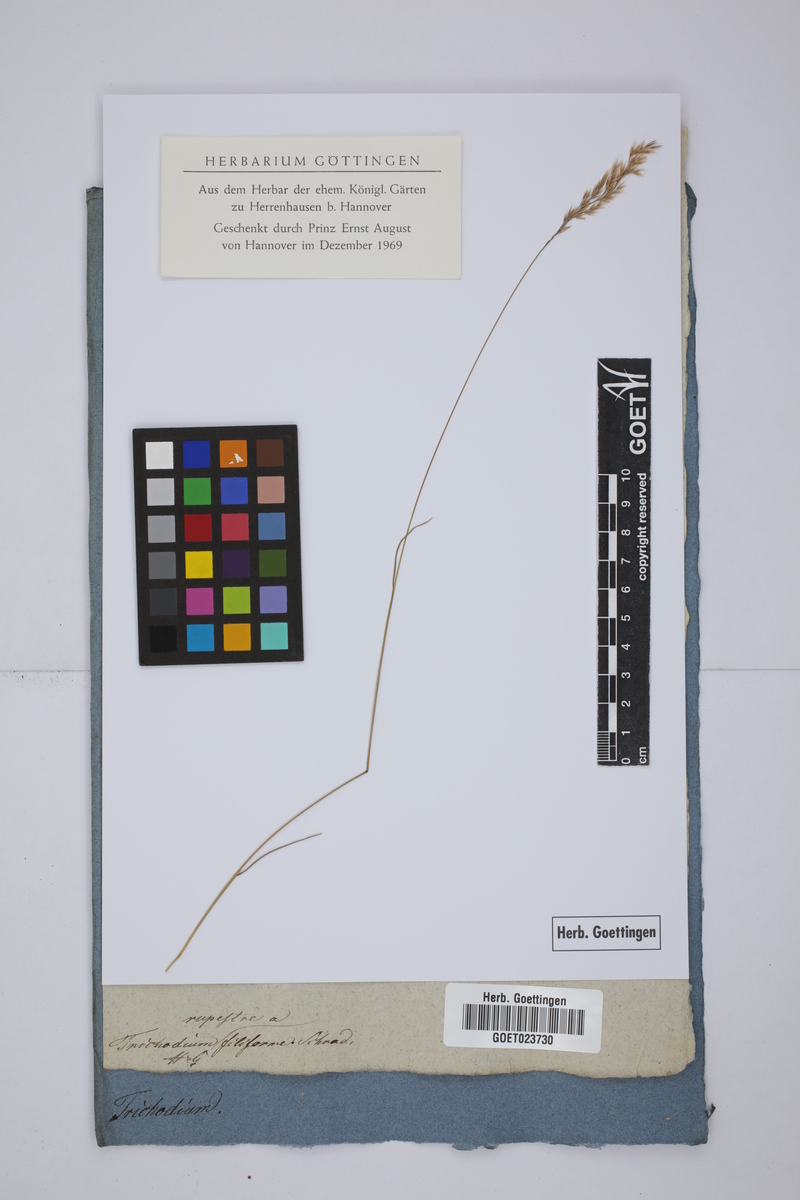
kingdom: Plantae
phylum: Tracheophyta
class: Liliopsida
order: Poales
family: Poaceae
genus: Alpagrostis
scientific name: Alpagrostis alpina
